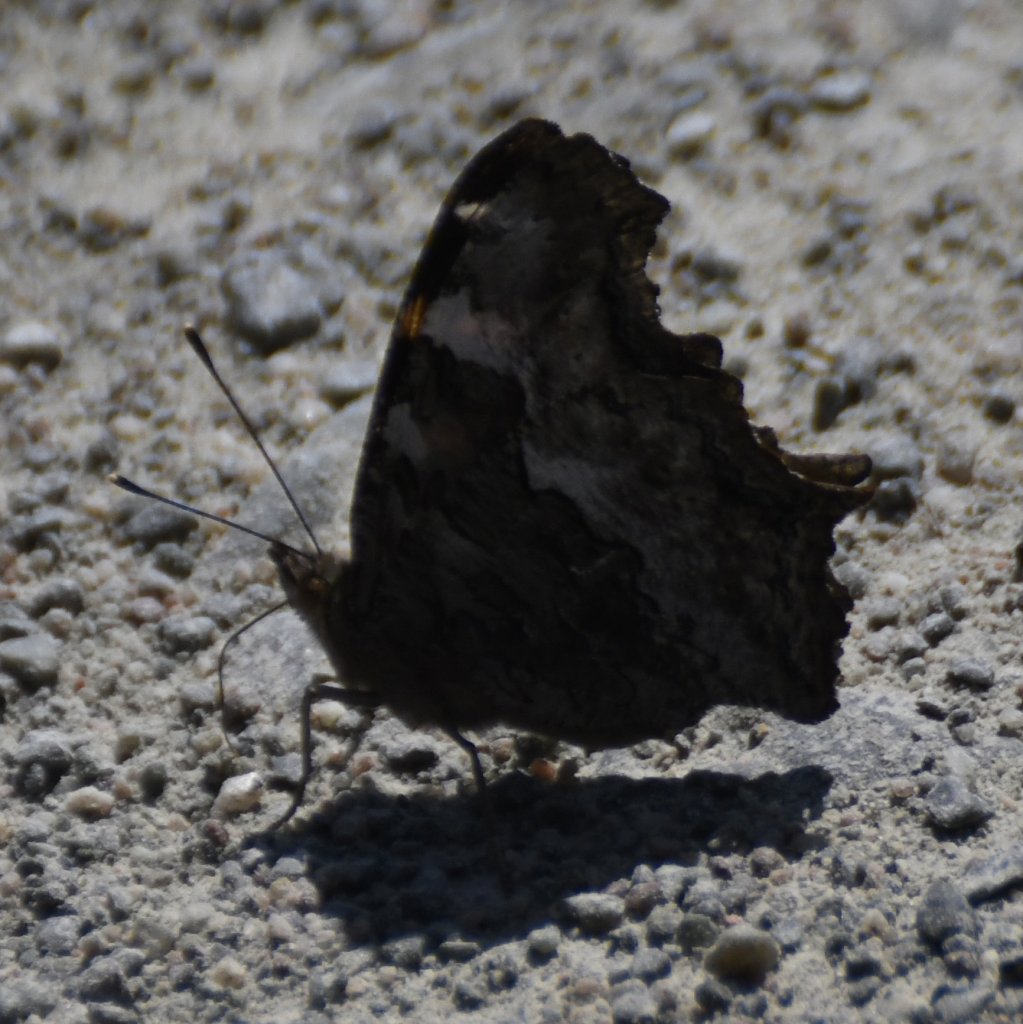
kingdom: Animalia
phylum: Arthropoda
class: Insecta
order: Lepidoptera
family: Nymphalidae
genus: Polygonia
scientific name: Polygonia vaualbum
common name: Compton Tortoiseshell
